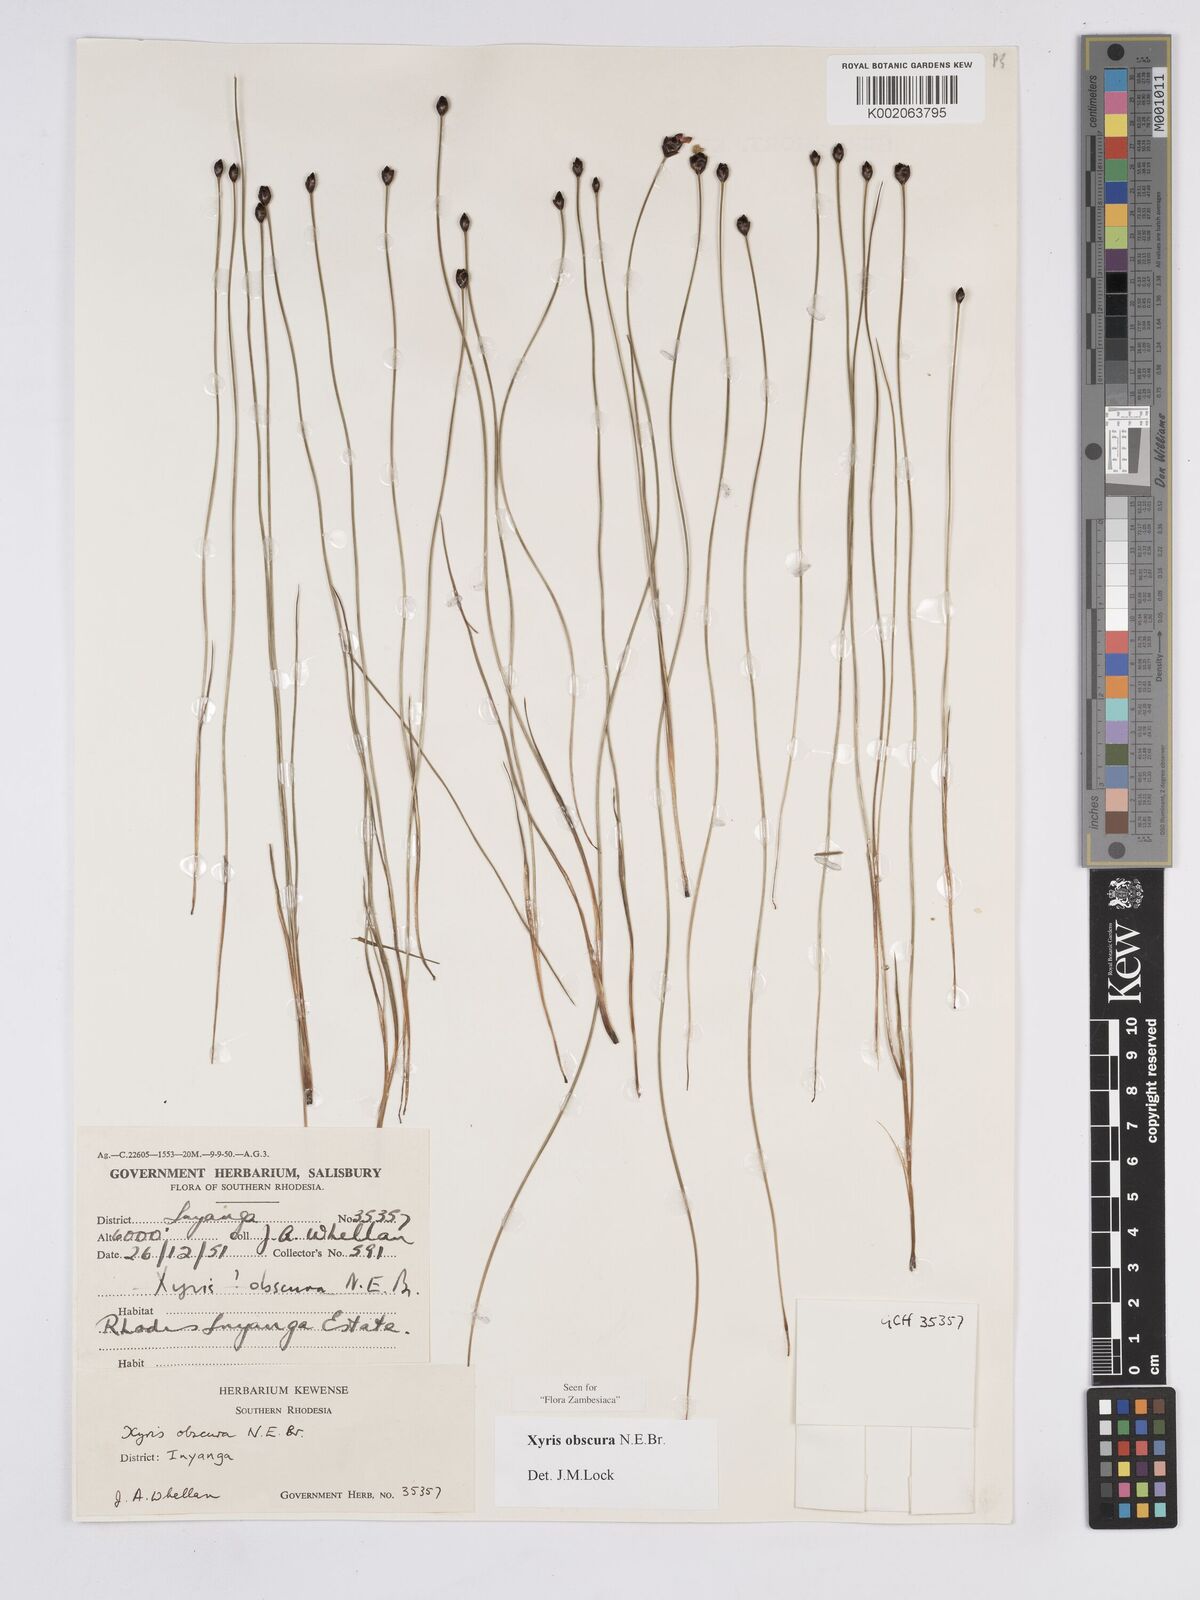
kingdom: Plantae
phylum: Tracheophyta
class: Liliopsida
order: Poales
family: Xyridaceae
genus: Xyris
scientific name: Xyris obscura
